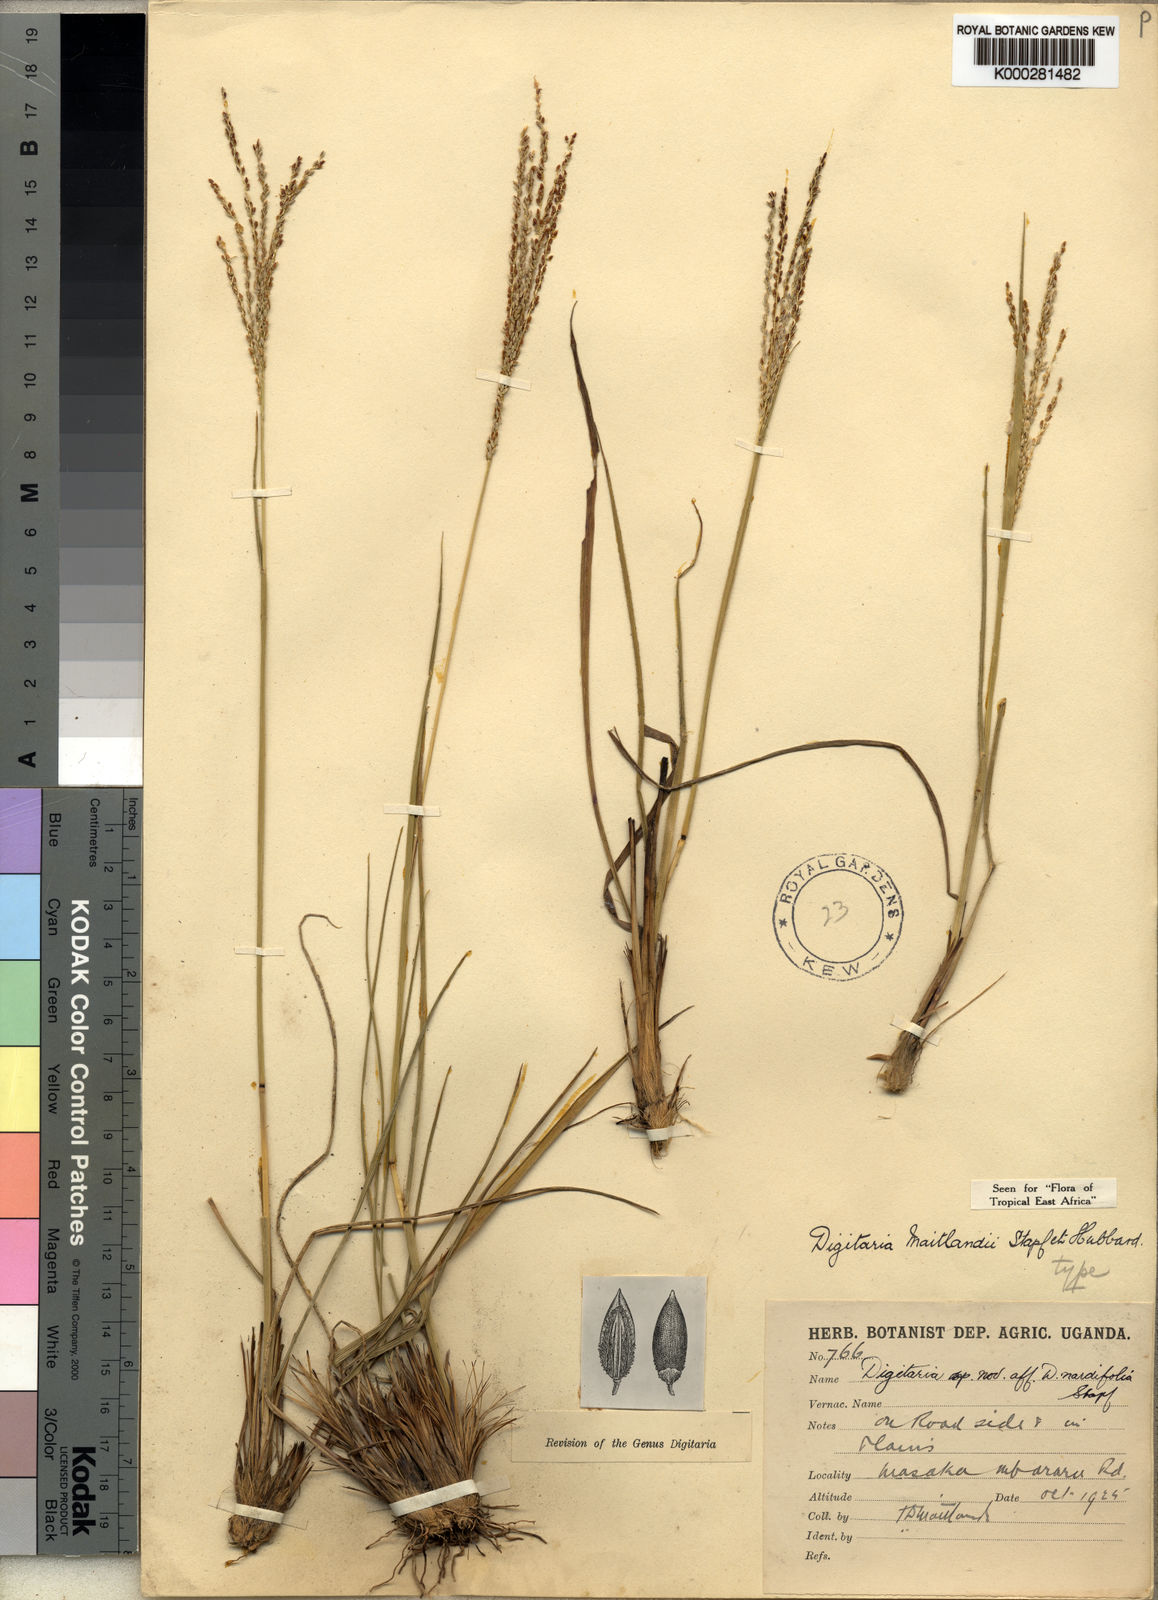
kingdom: Plantae
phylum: Tracheophyta
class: Liliopsida
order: Poales
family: Poaceae
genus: Digitaria
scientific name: Digitaria maitlandii
